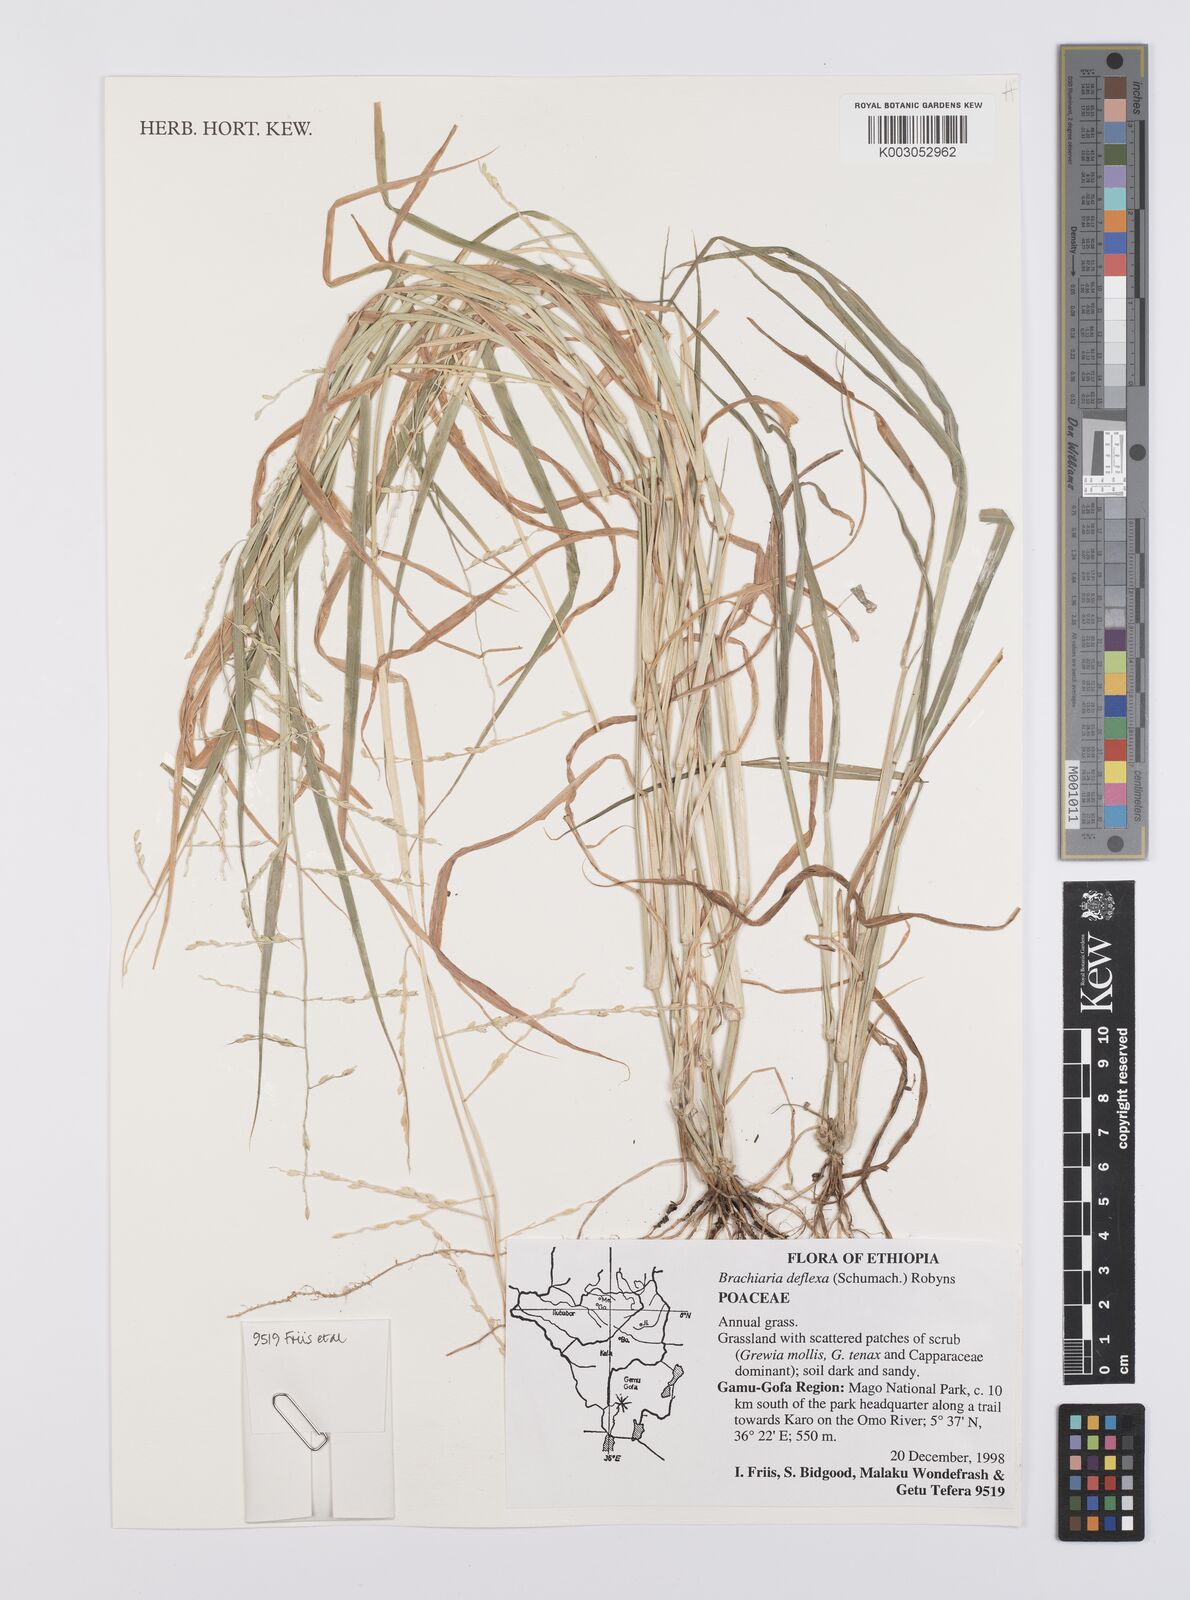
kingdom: Plantae
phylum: Tracheophyta
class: Liliopsida
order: Poales
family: Poaceae
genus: Urochloa
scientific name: Urochloa deflexa
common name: Guinea millet
